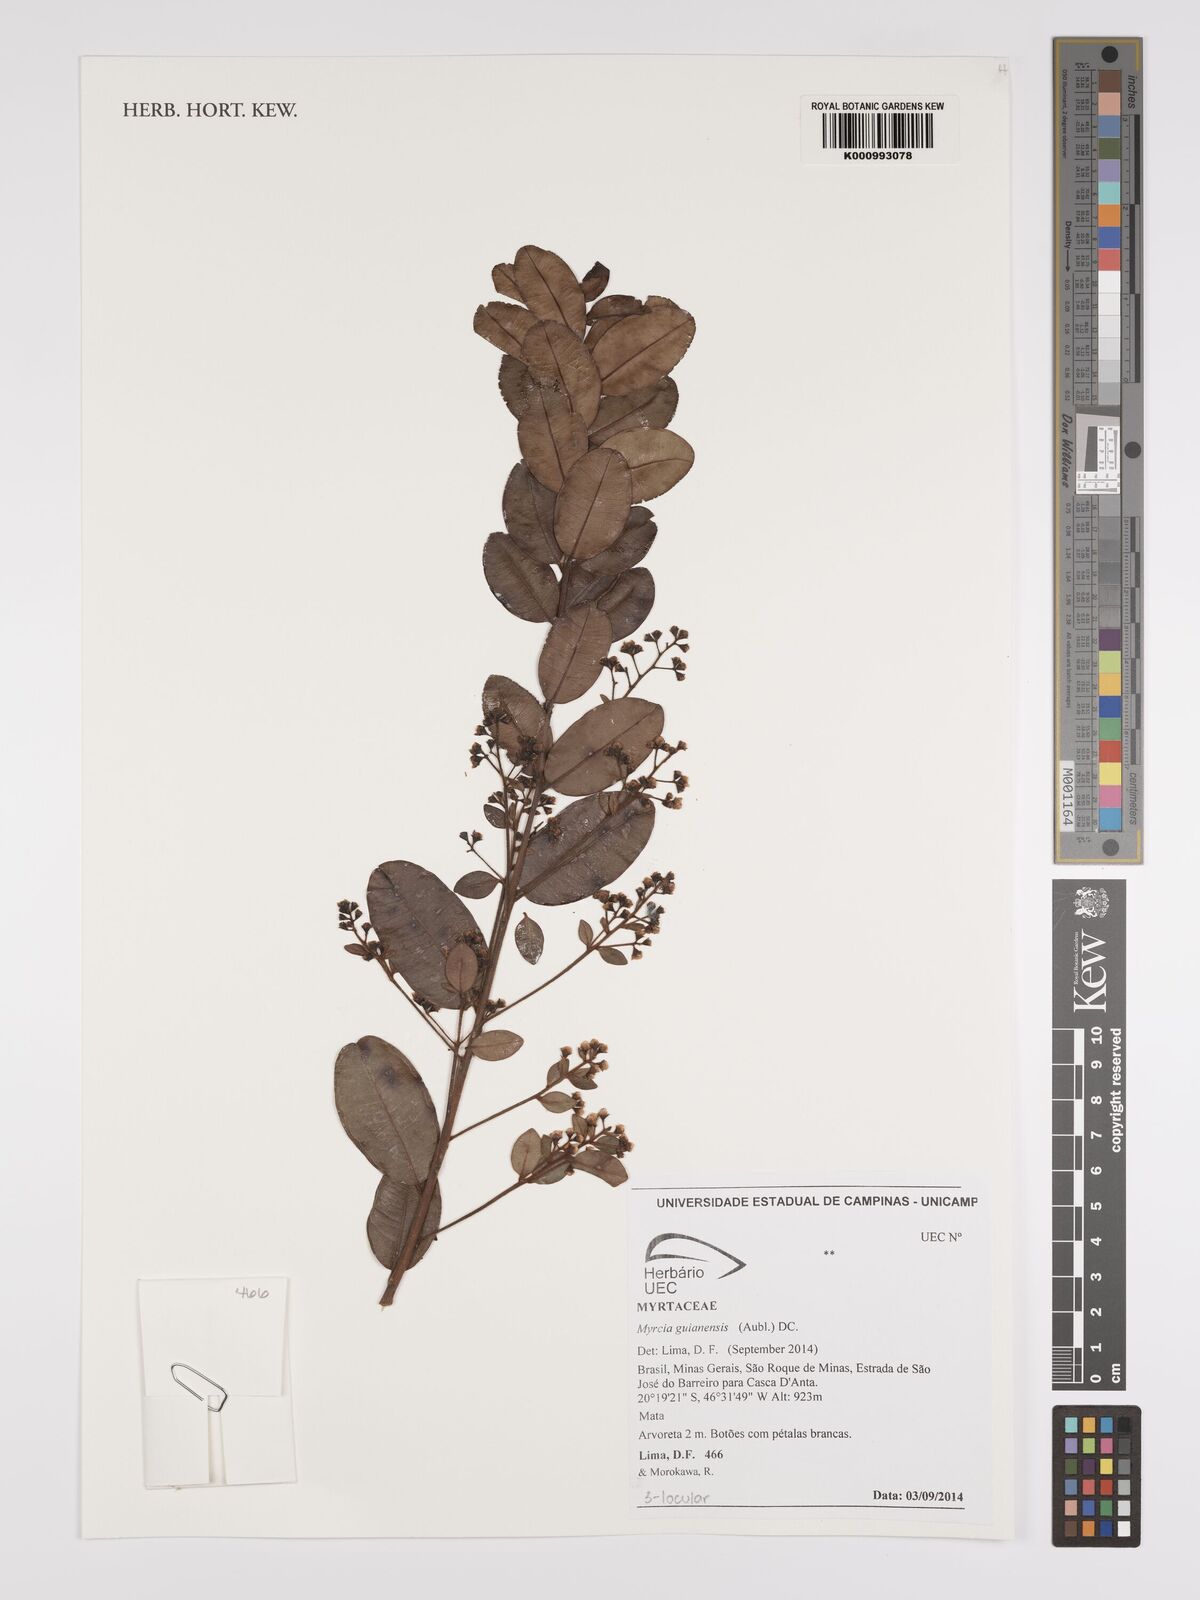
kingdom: Plantae
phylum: Tracheophyta
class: Magnoliopsida
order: Myrtales
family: Myrtaceae
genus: Myrcia
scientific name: Myrcia guianensis
